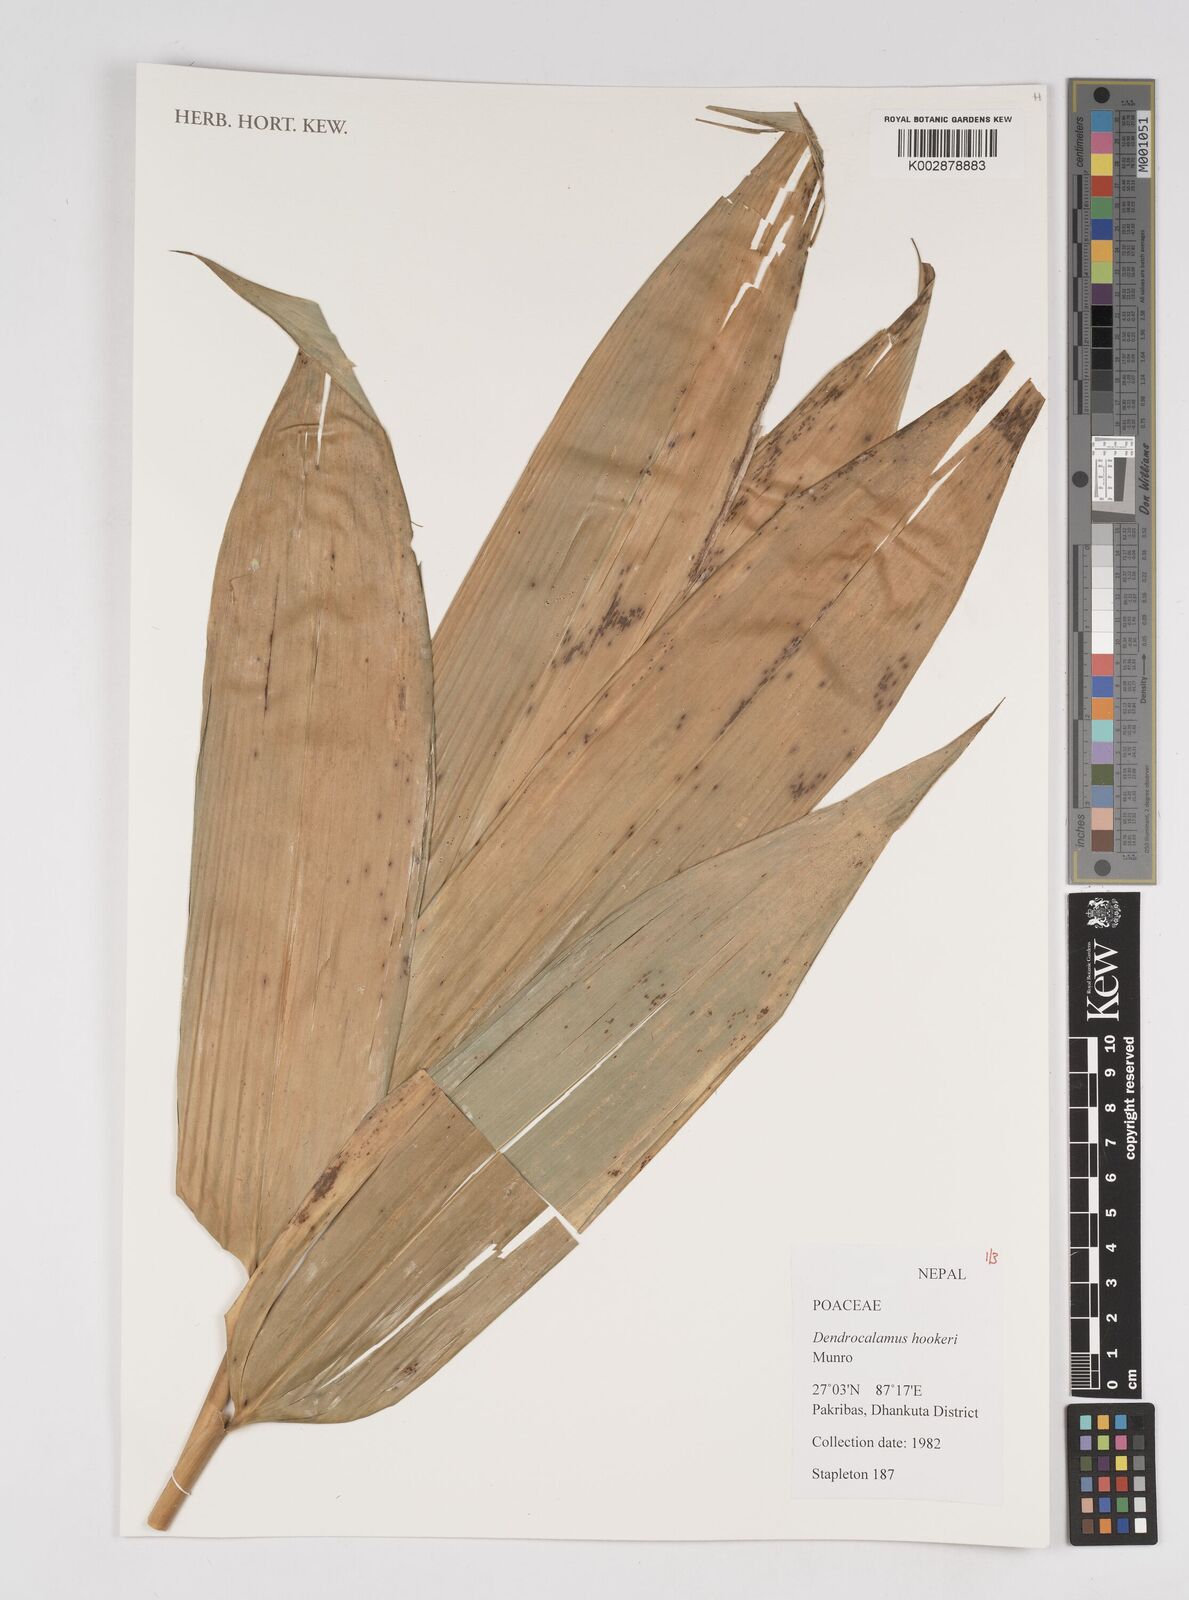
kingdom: Plantae
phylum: Tracheophyta
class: Liliopsida
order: Poales
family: Poaceae
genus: Dendrocalamus
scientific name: Dendrocalamus hookeri
